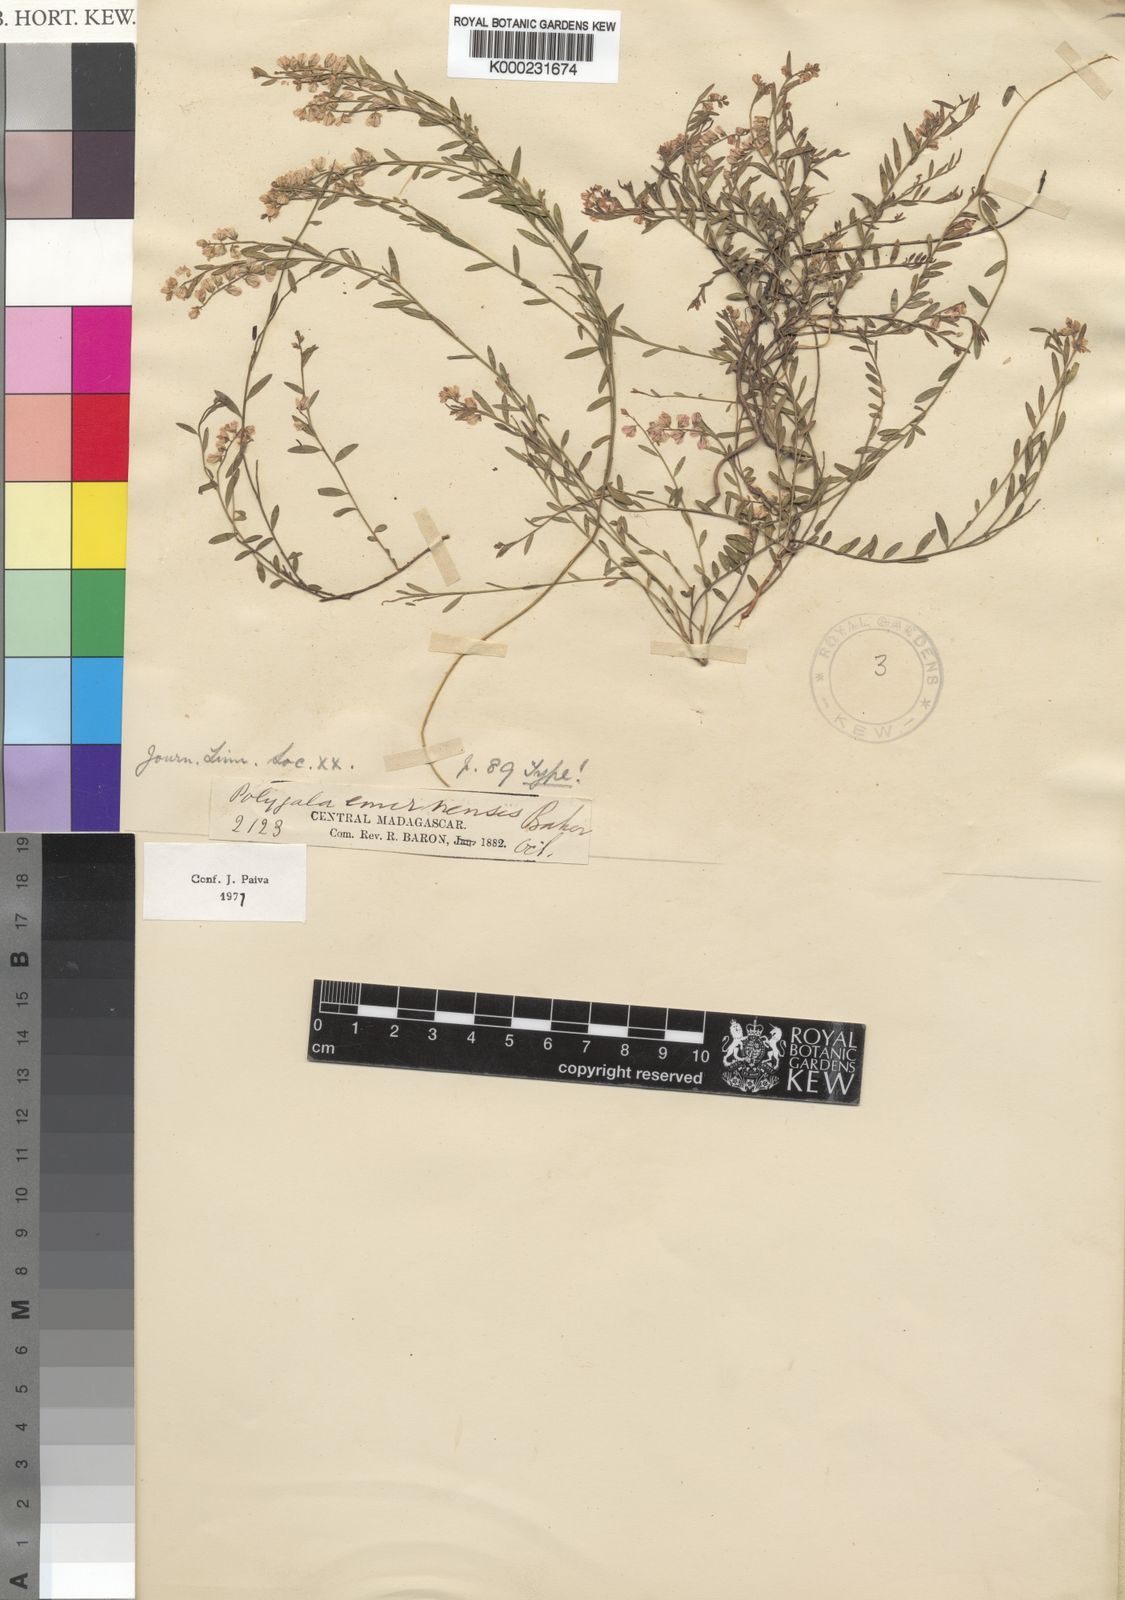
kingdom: Plantae
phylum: Tracheophyta
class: Magnoliopsida
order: Fabales
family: Polygalaceae
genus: Polygala
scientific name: Polygala
